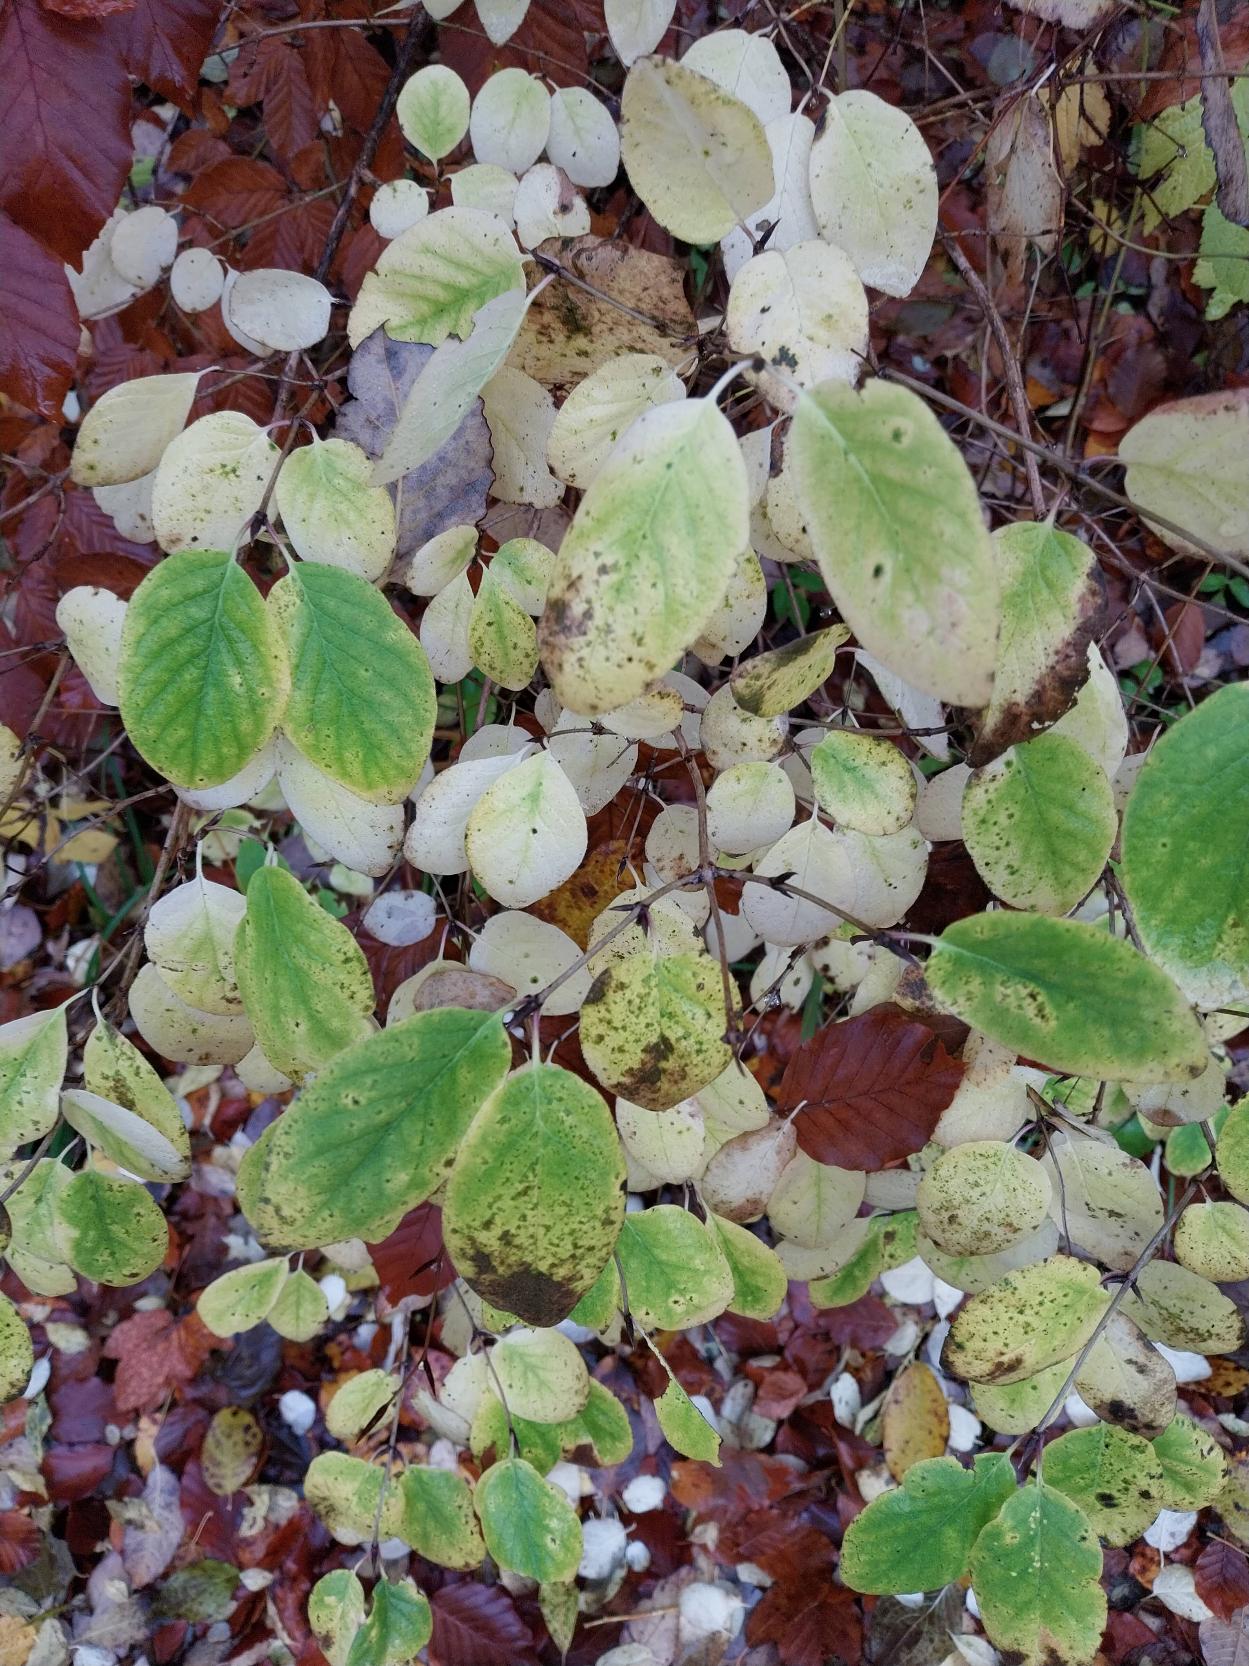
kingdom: Plantae
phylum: Tracheophyta
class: Magnoliopsida
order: Dipsacales
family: Caprifoliaceae
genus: Lonicera
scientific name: Lonicera xylosteum
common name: Dunet gedeblad
